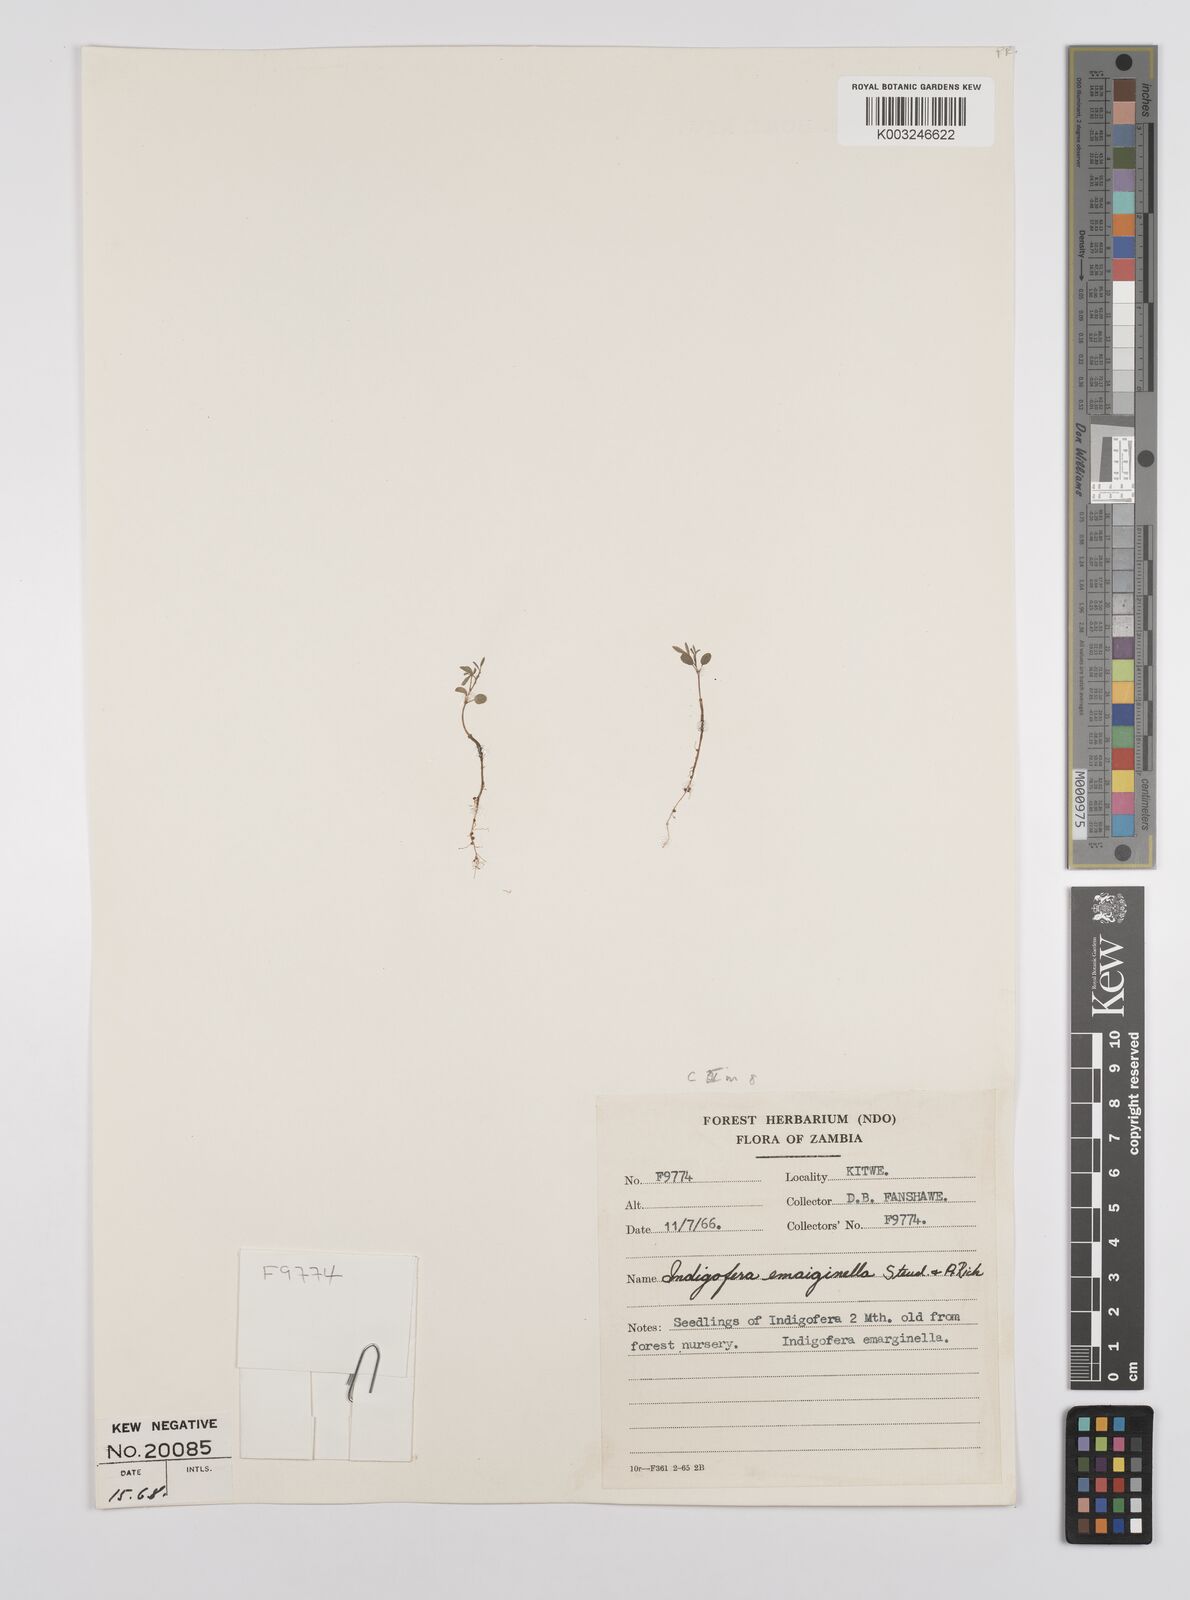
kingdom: Plantae
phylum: Tracheophyta
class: Magnoliopsida
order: Fabales
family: Fabaceae
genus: Indigofera
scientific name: Indigofera emarginella
